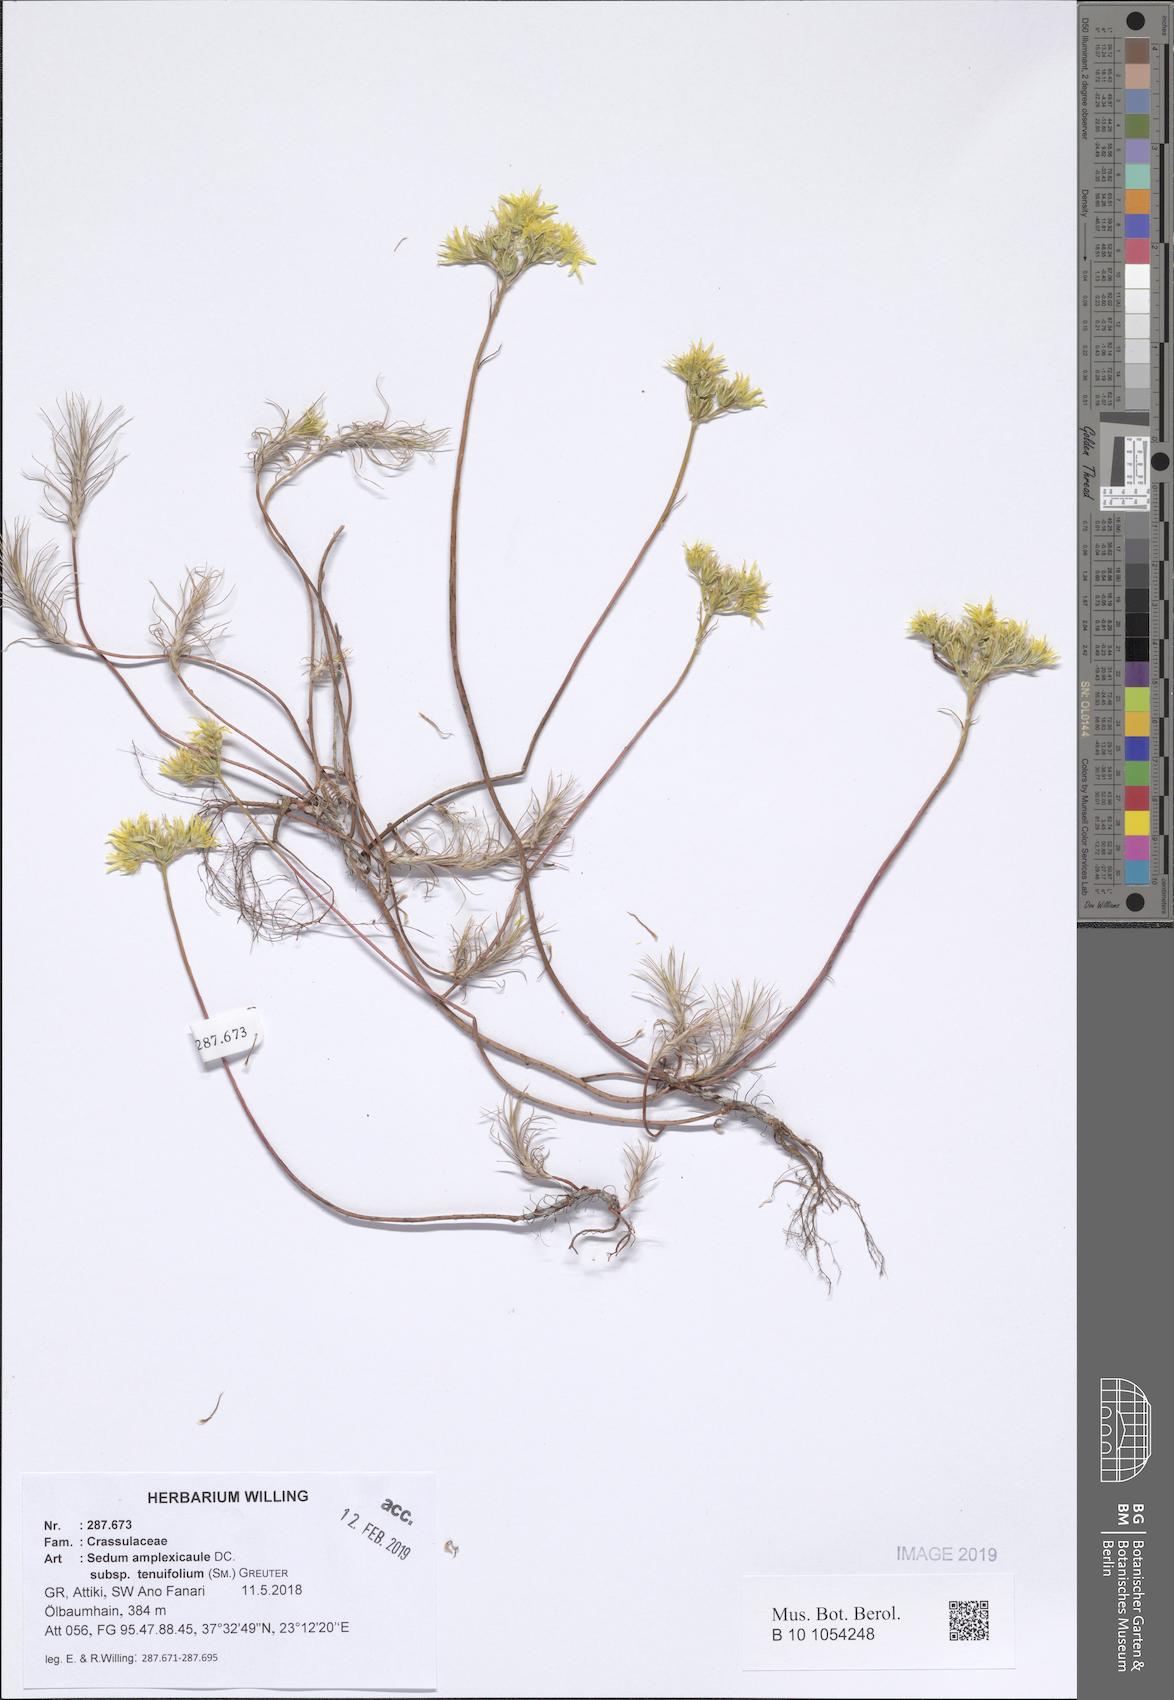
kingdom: Plantae
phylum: Tracheophyta
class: Magnoliopsida
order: Saxifragales
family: Crassulaceae
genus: Petrosedum
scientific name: Petrosedum tenuifolium
